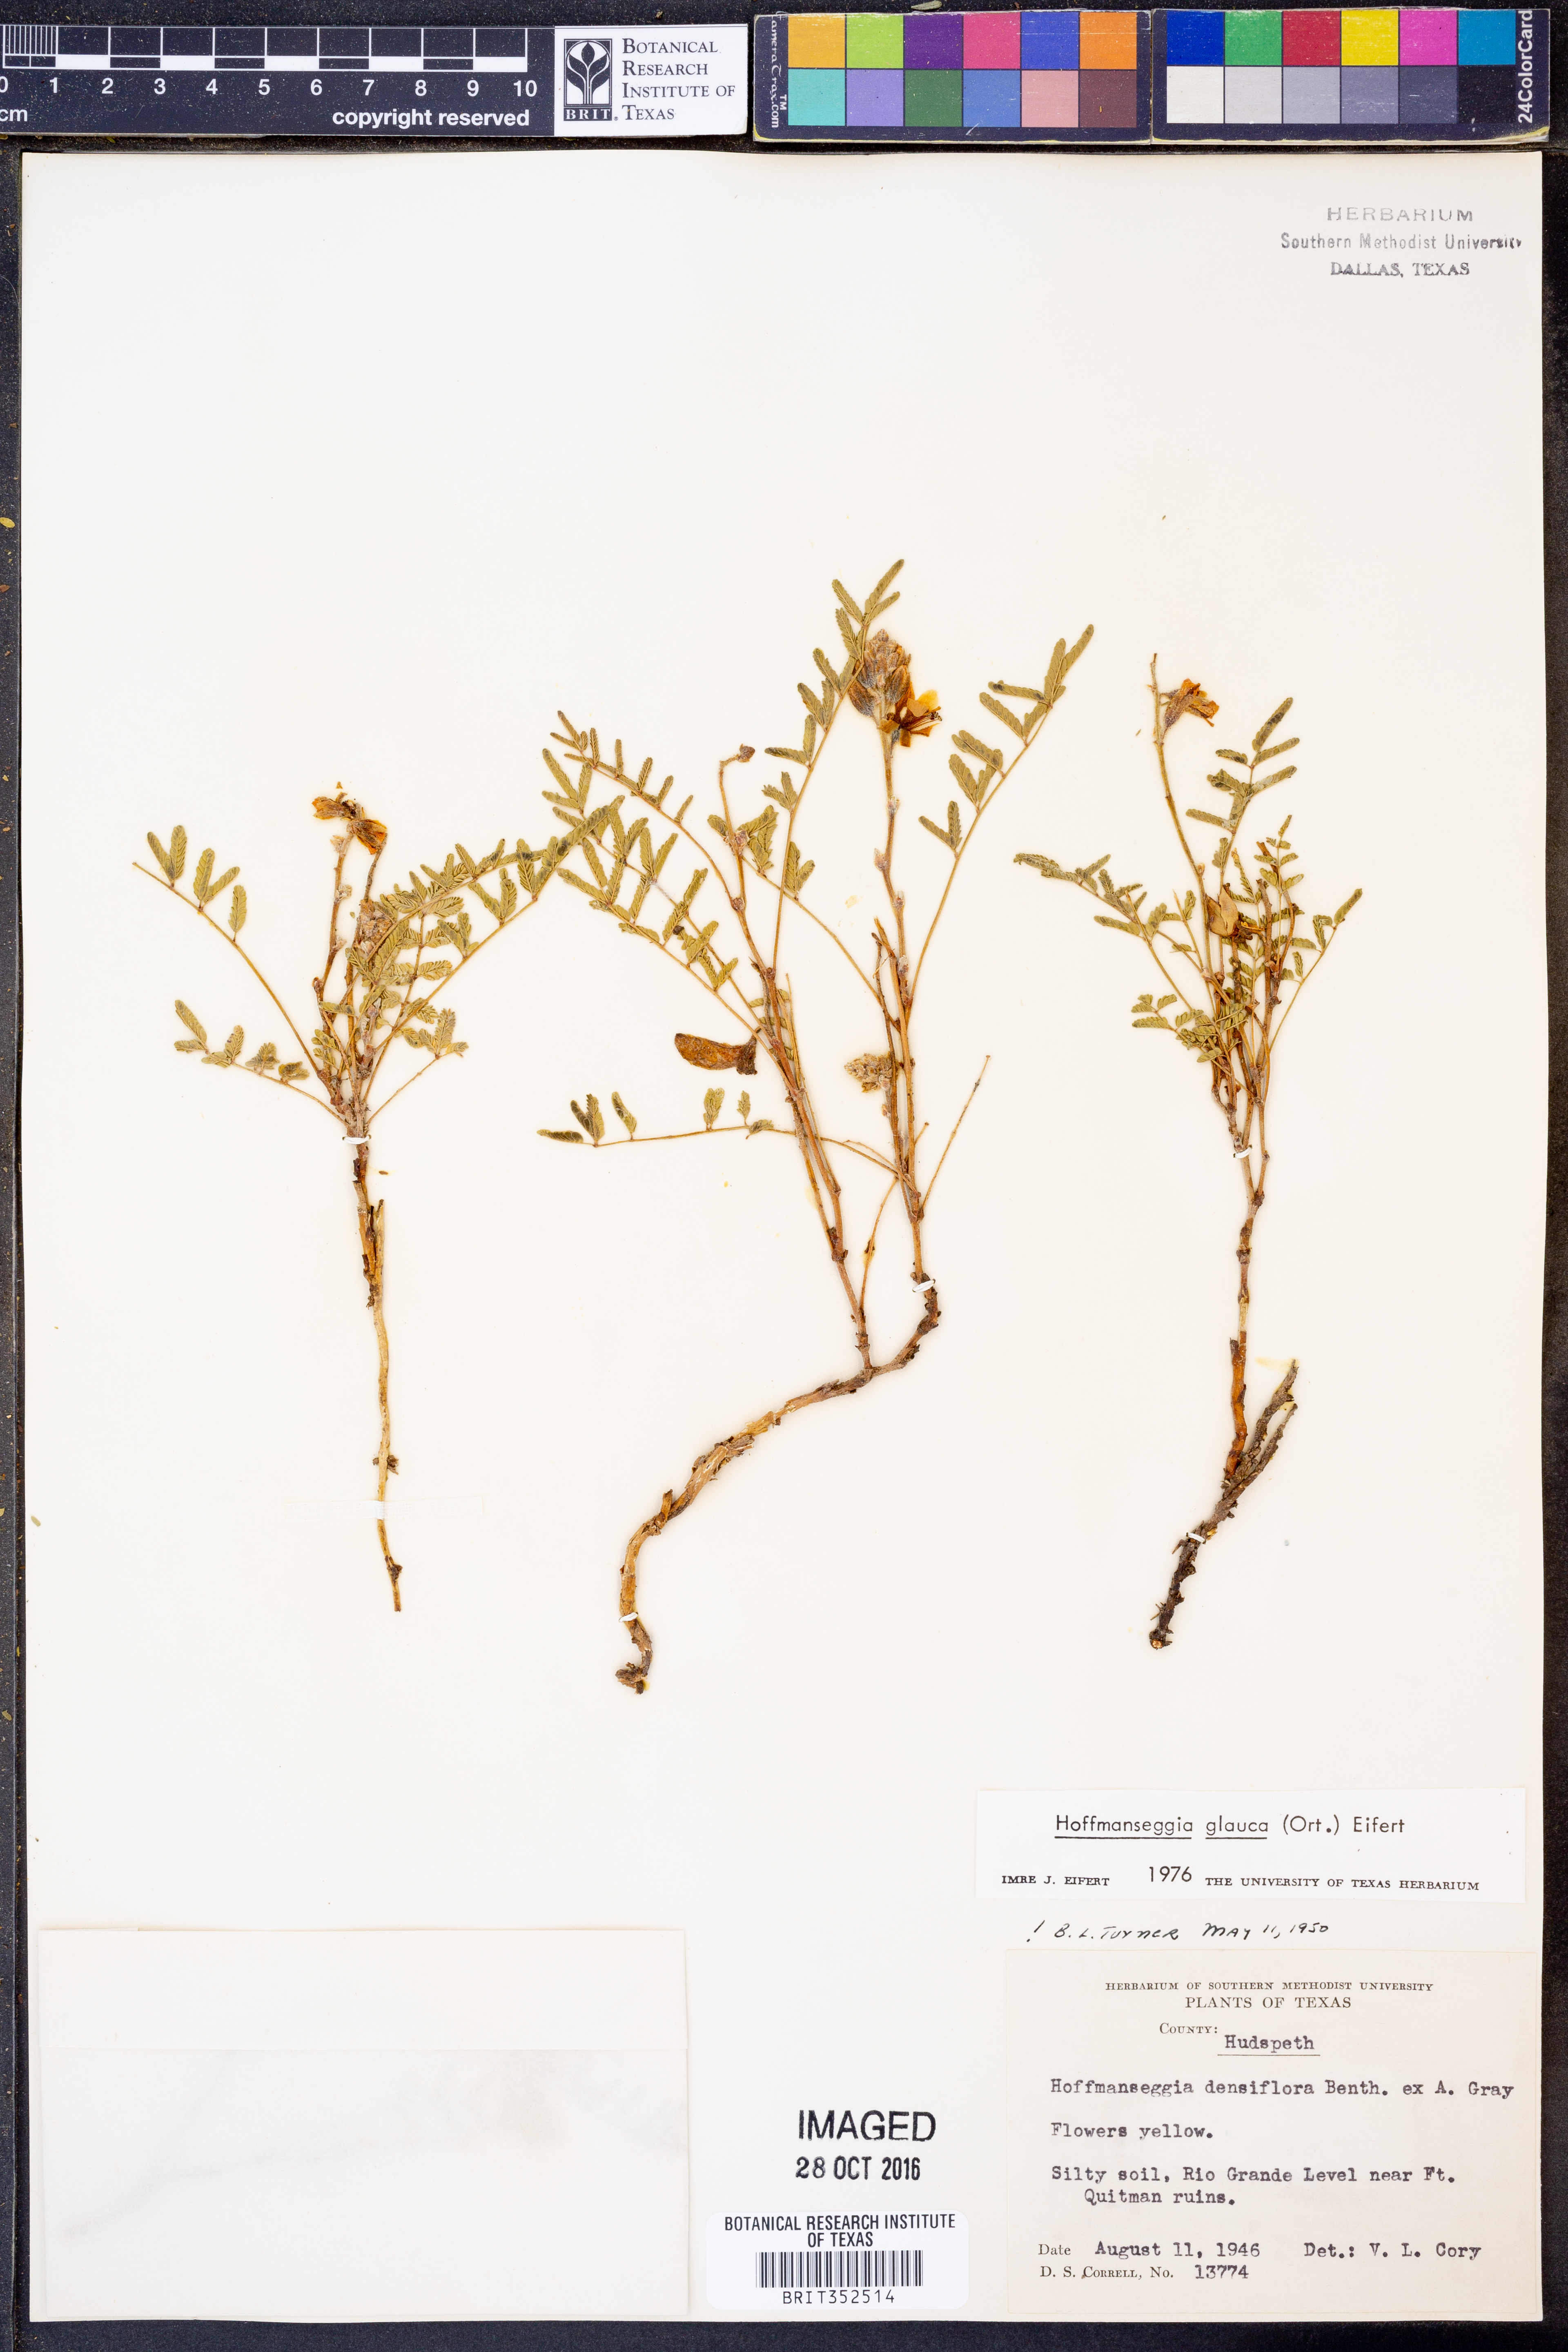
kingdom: Plantae
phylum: Tracheophyta
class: Magnoliopsida
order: Fabales
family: Fabaceae
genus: Hoffmannseggia
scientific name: Hoffmannseggia glauca
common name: Pignut
